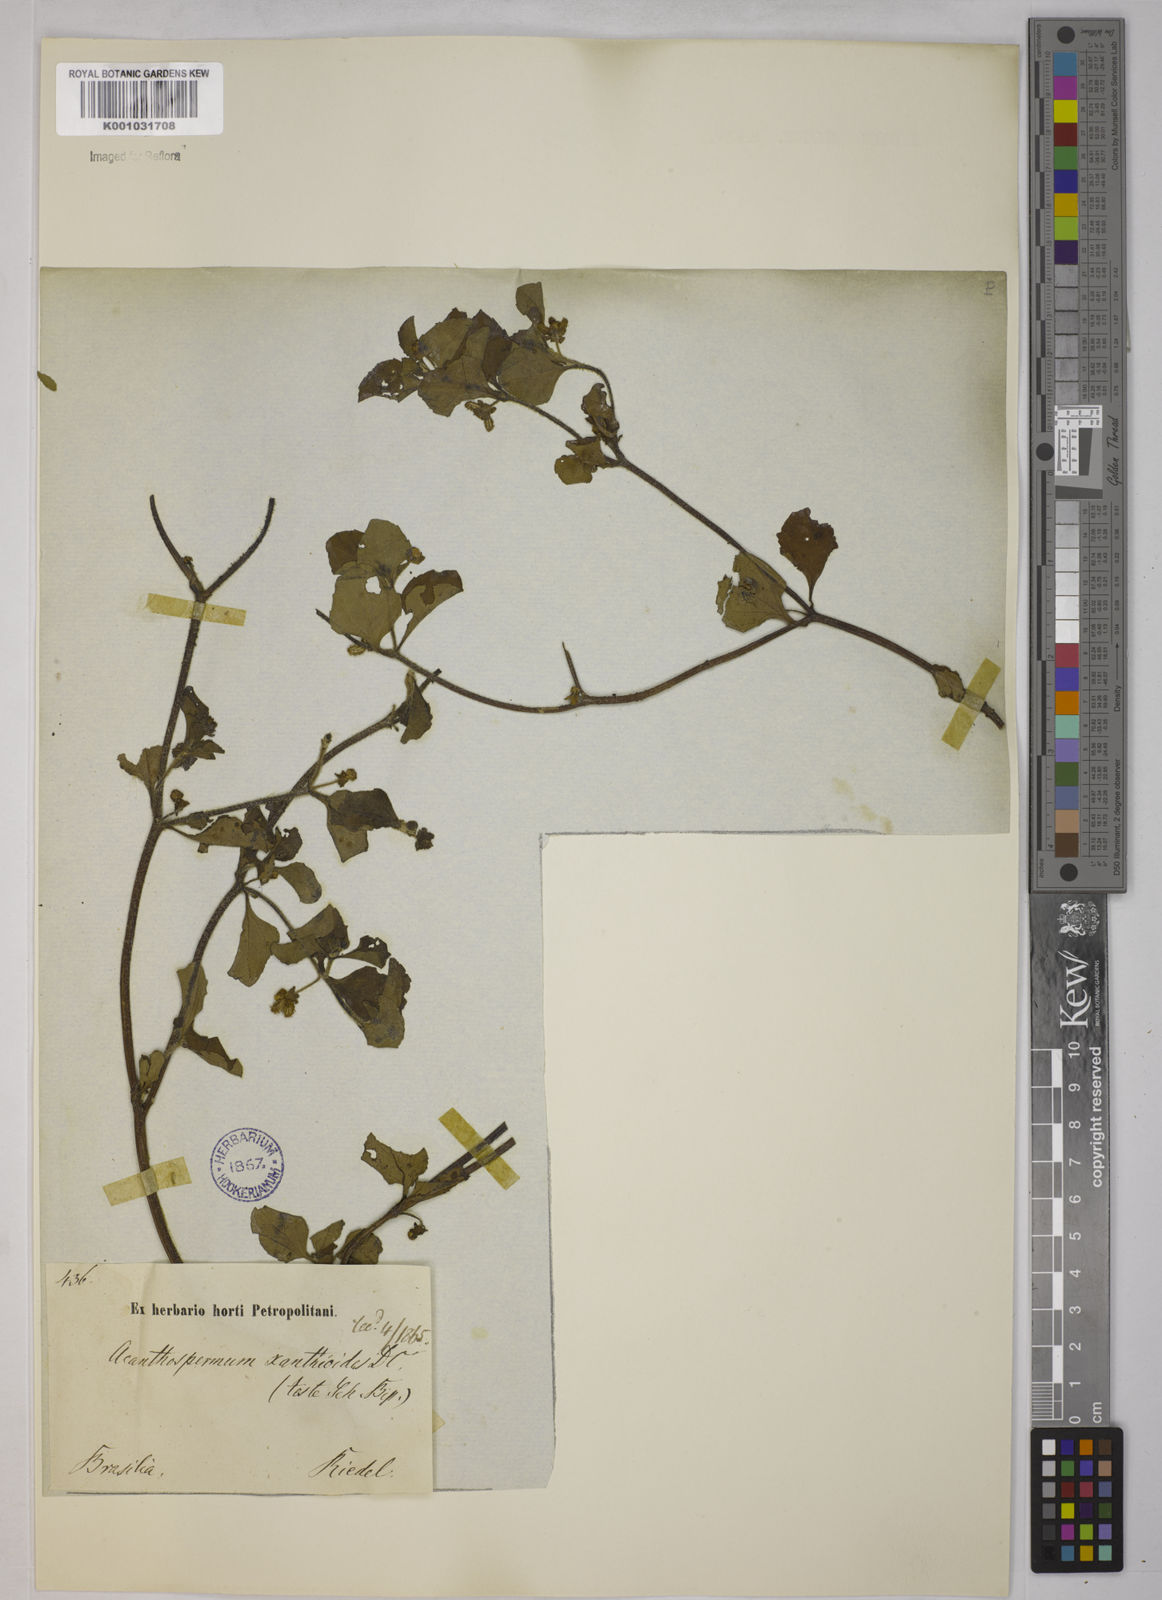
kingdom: Plantae
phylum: Tracheophyta
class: Magnoliopsida
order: Asterales
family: Asteraceae
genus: Acanthospermum
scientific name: Acanthospermum australe
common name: Paraguayan starbur
